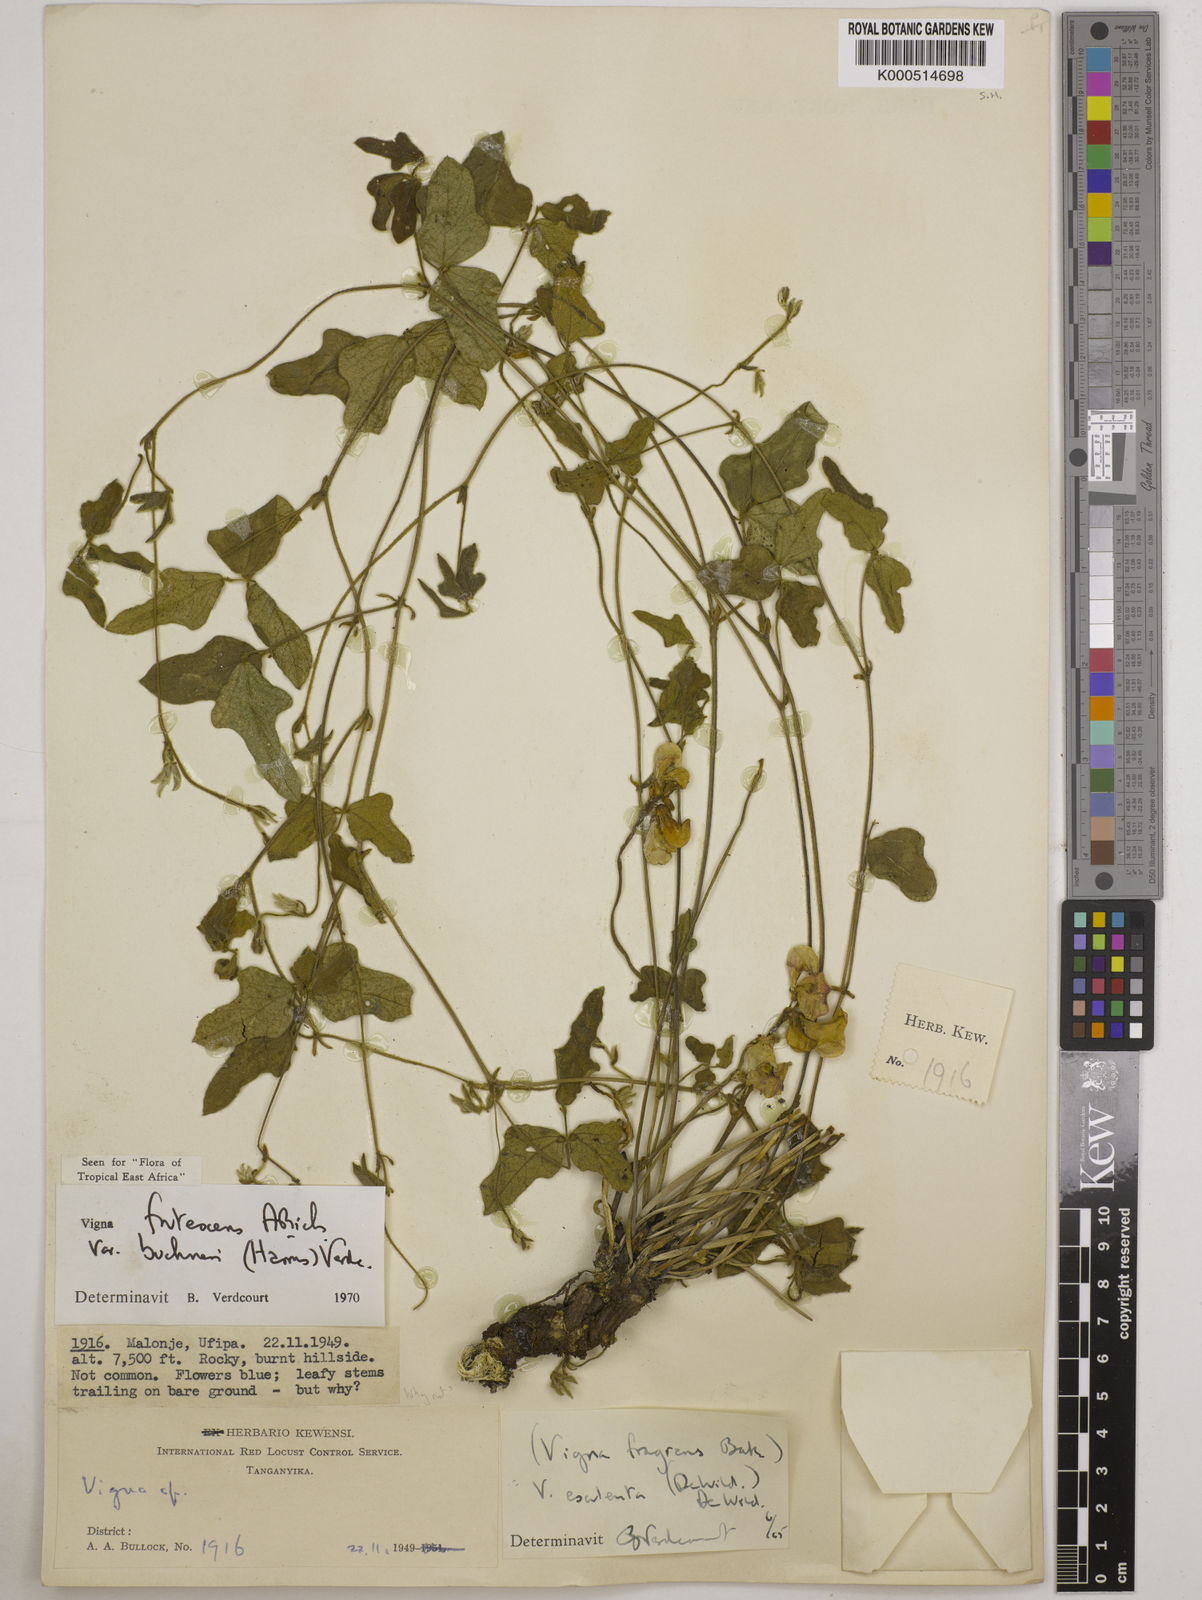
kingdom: Plantae
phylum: Tracheophyta
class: Magnoliopsida
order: Fabales
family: Fabaceae
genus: Vigna
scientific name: Vigna
